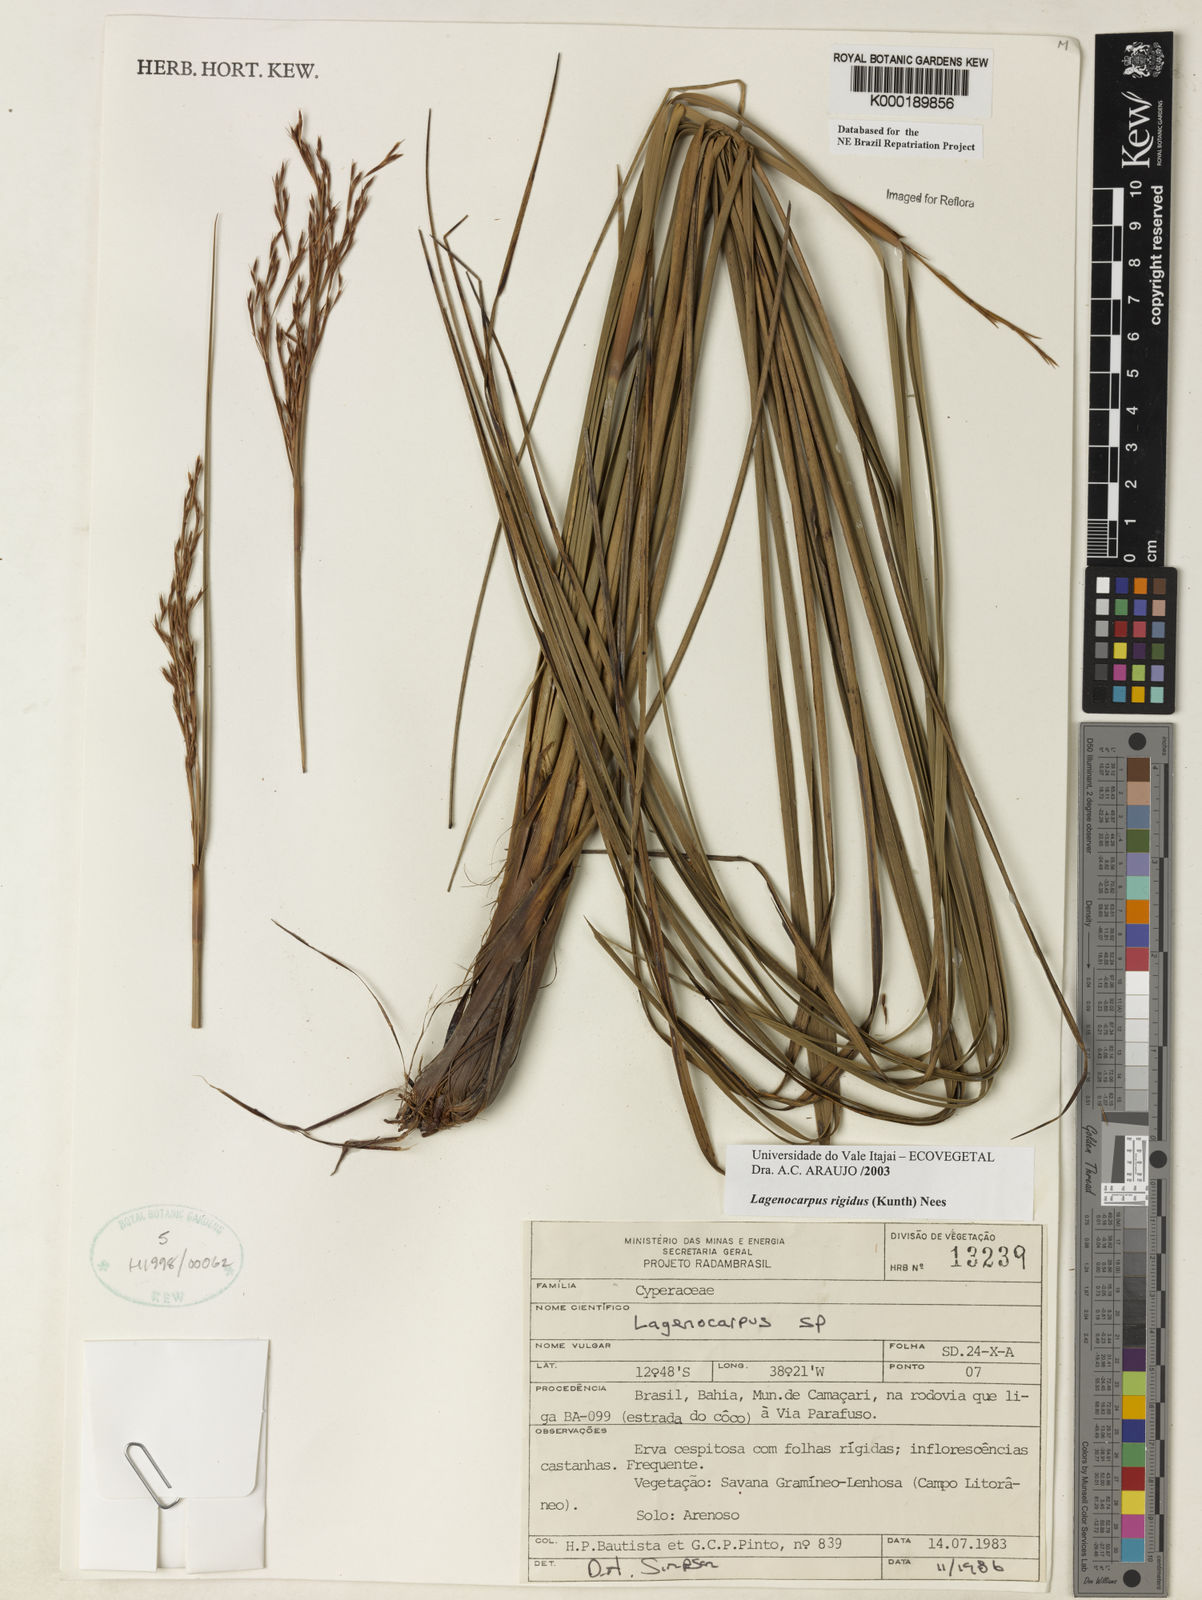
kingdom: Plantae
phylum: Tracheophyta
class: Liliopsida
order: Poales
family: Cyperaceae
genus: Lagenocarpus
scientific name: Lagenocarpus rigidus
